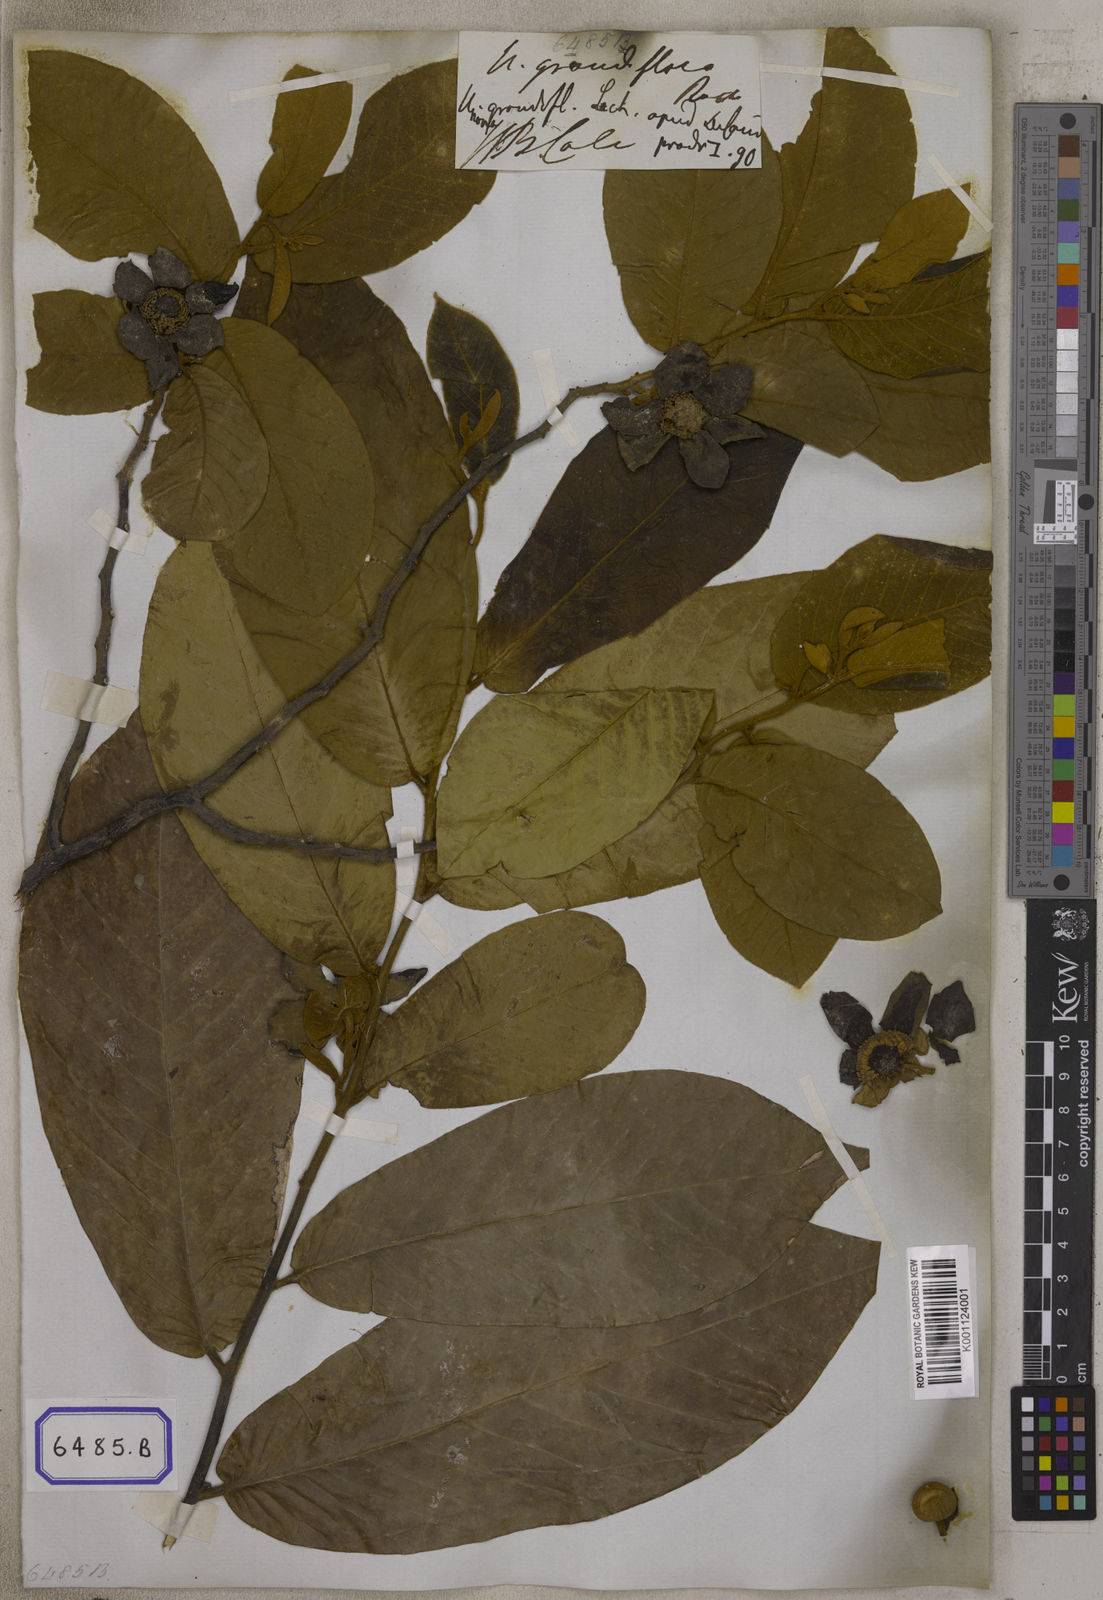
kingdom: Plantae
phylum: Tracheophyta
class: Magnoliopsida
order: Magnoliales
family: Annonaceae
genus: Uvaria
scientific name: Uvaria grandiflora
